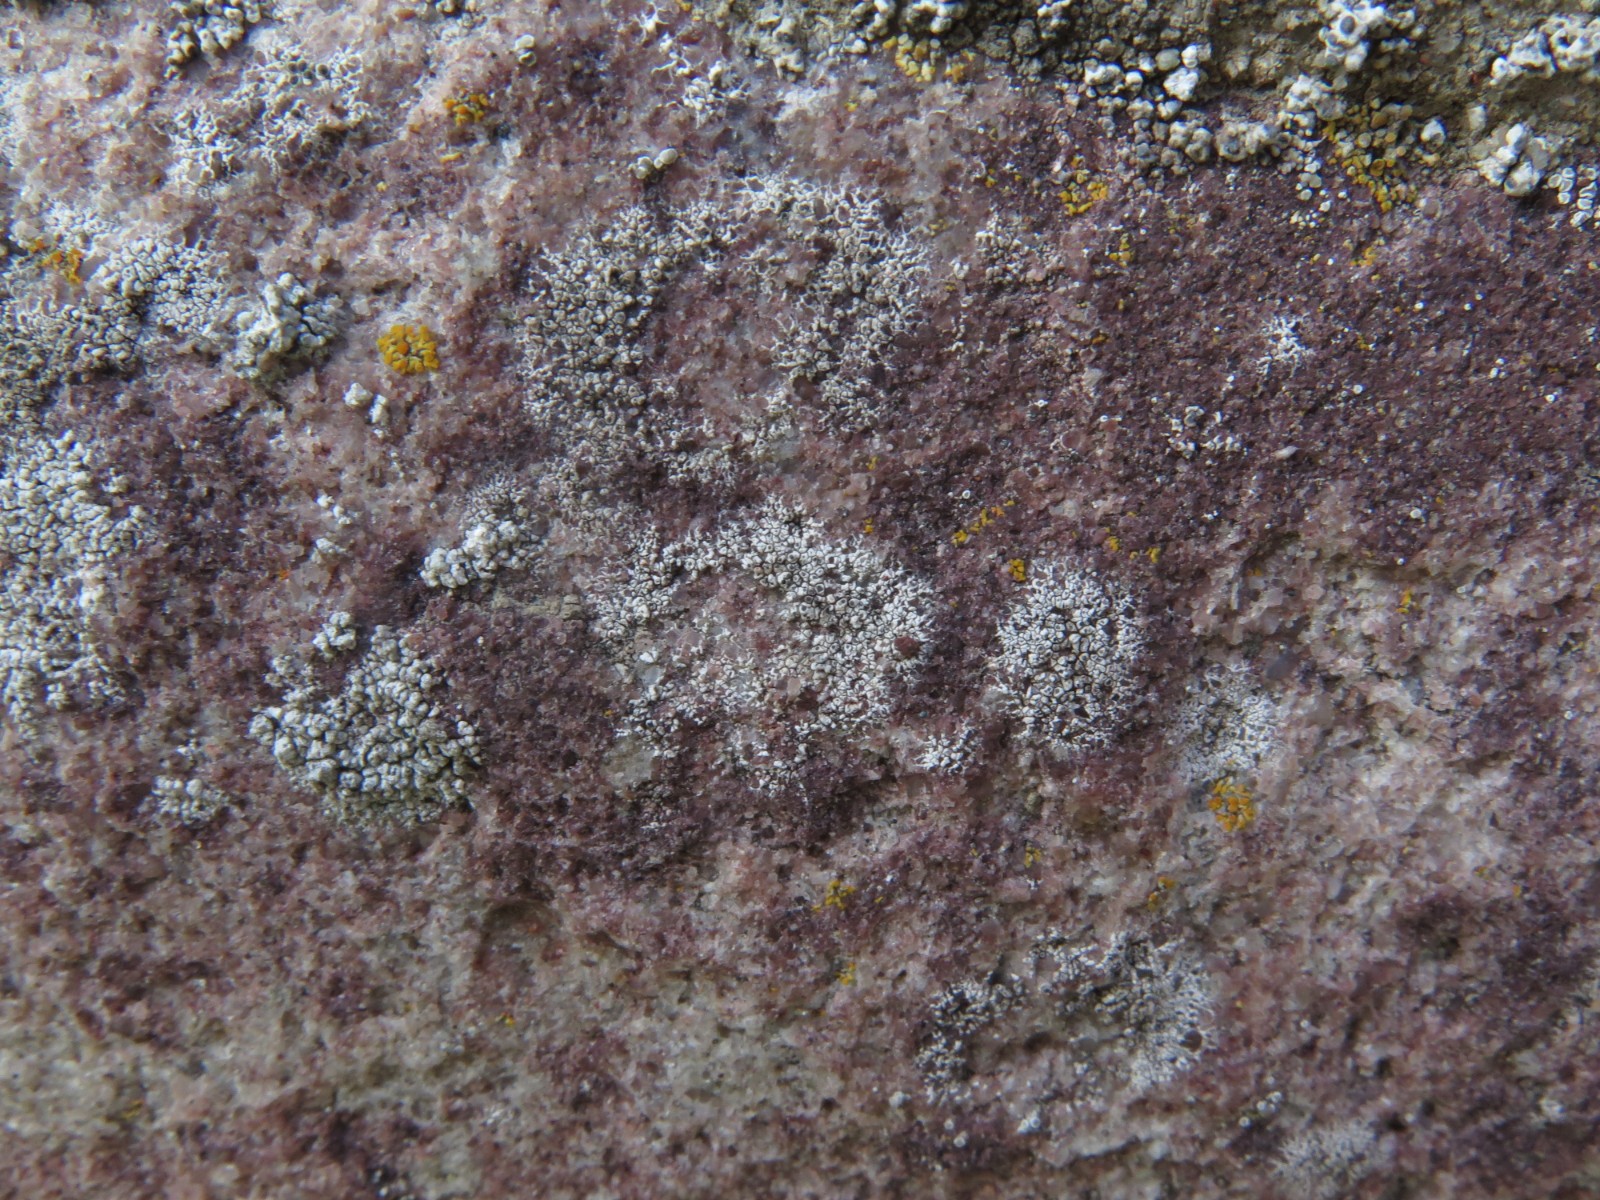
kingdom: Fungi
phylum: Ascomycota
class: Lecanoromycetes
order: Lecanorales
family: Lecanoraceae
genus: Polyozosia
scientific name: Polyozosia albescens
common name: cement-kantskivelav
